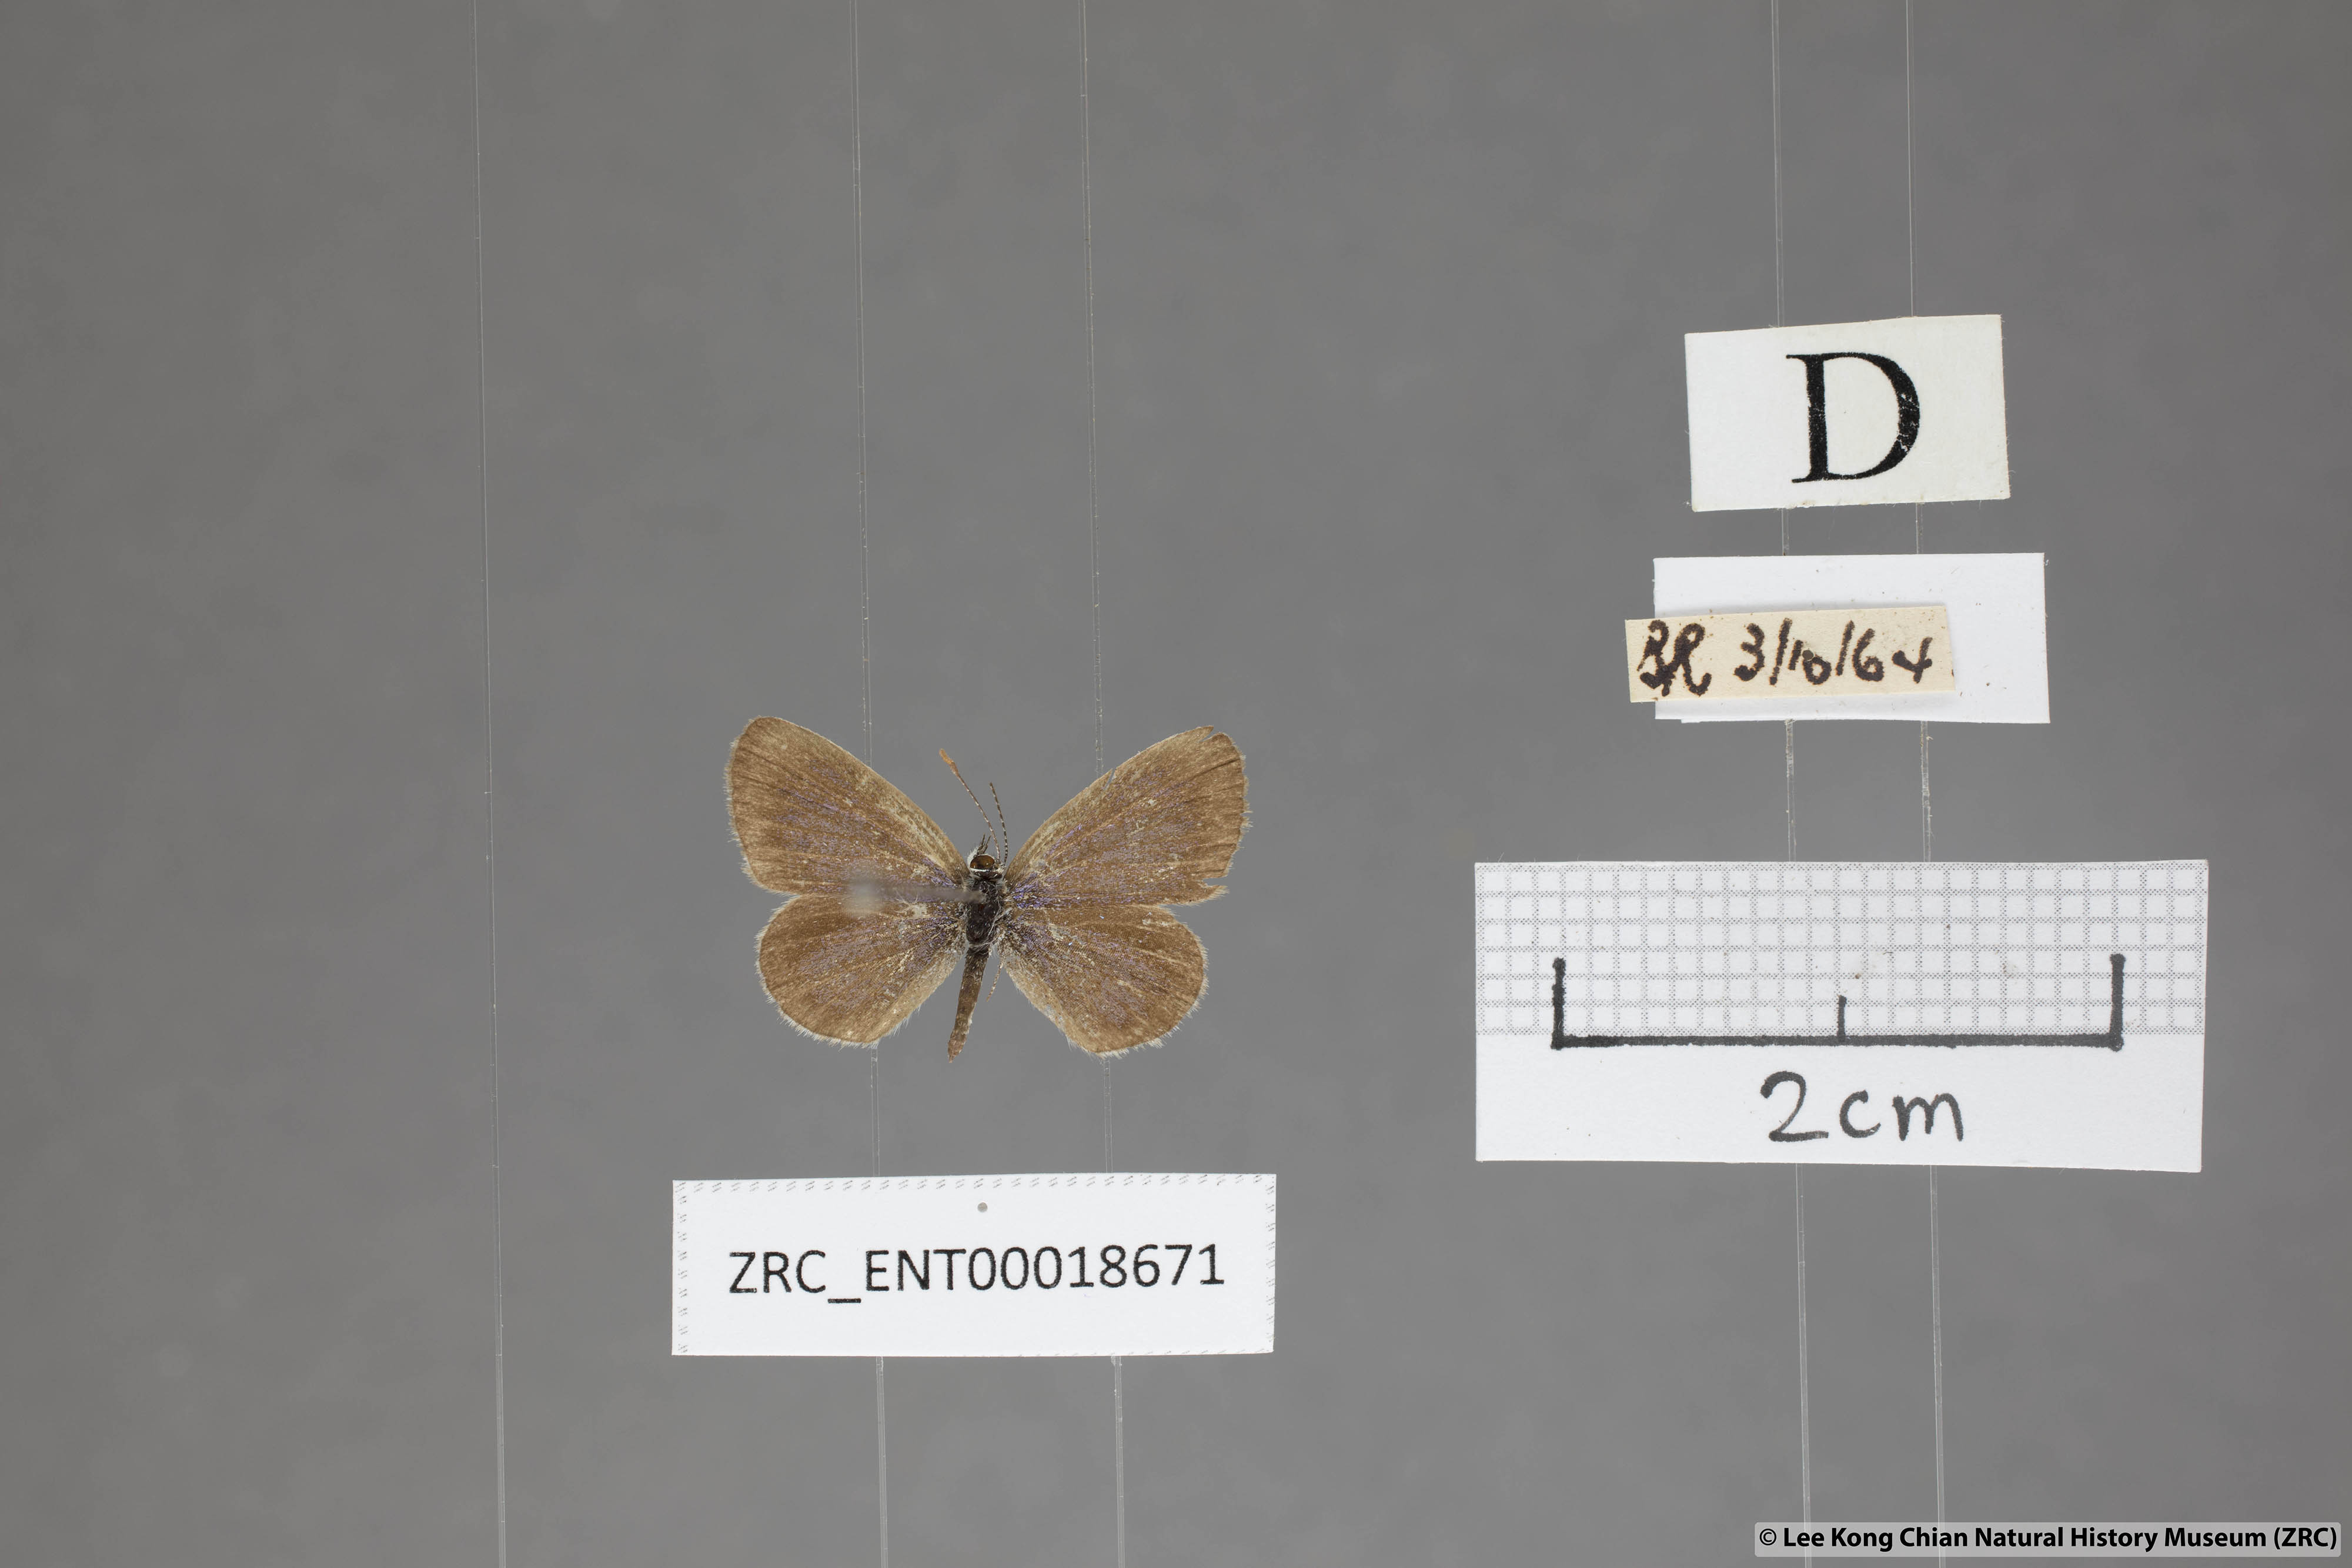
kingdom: Animalia
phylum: Arthropoda
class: Insecta
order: Lepidoptera
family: Lycaenidae
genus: Zizeeria
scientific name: Zizeeria karsandra
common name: Dark grass blue
